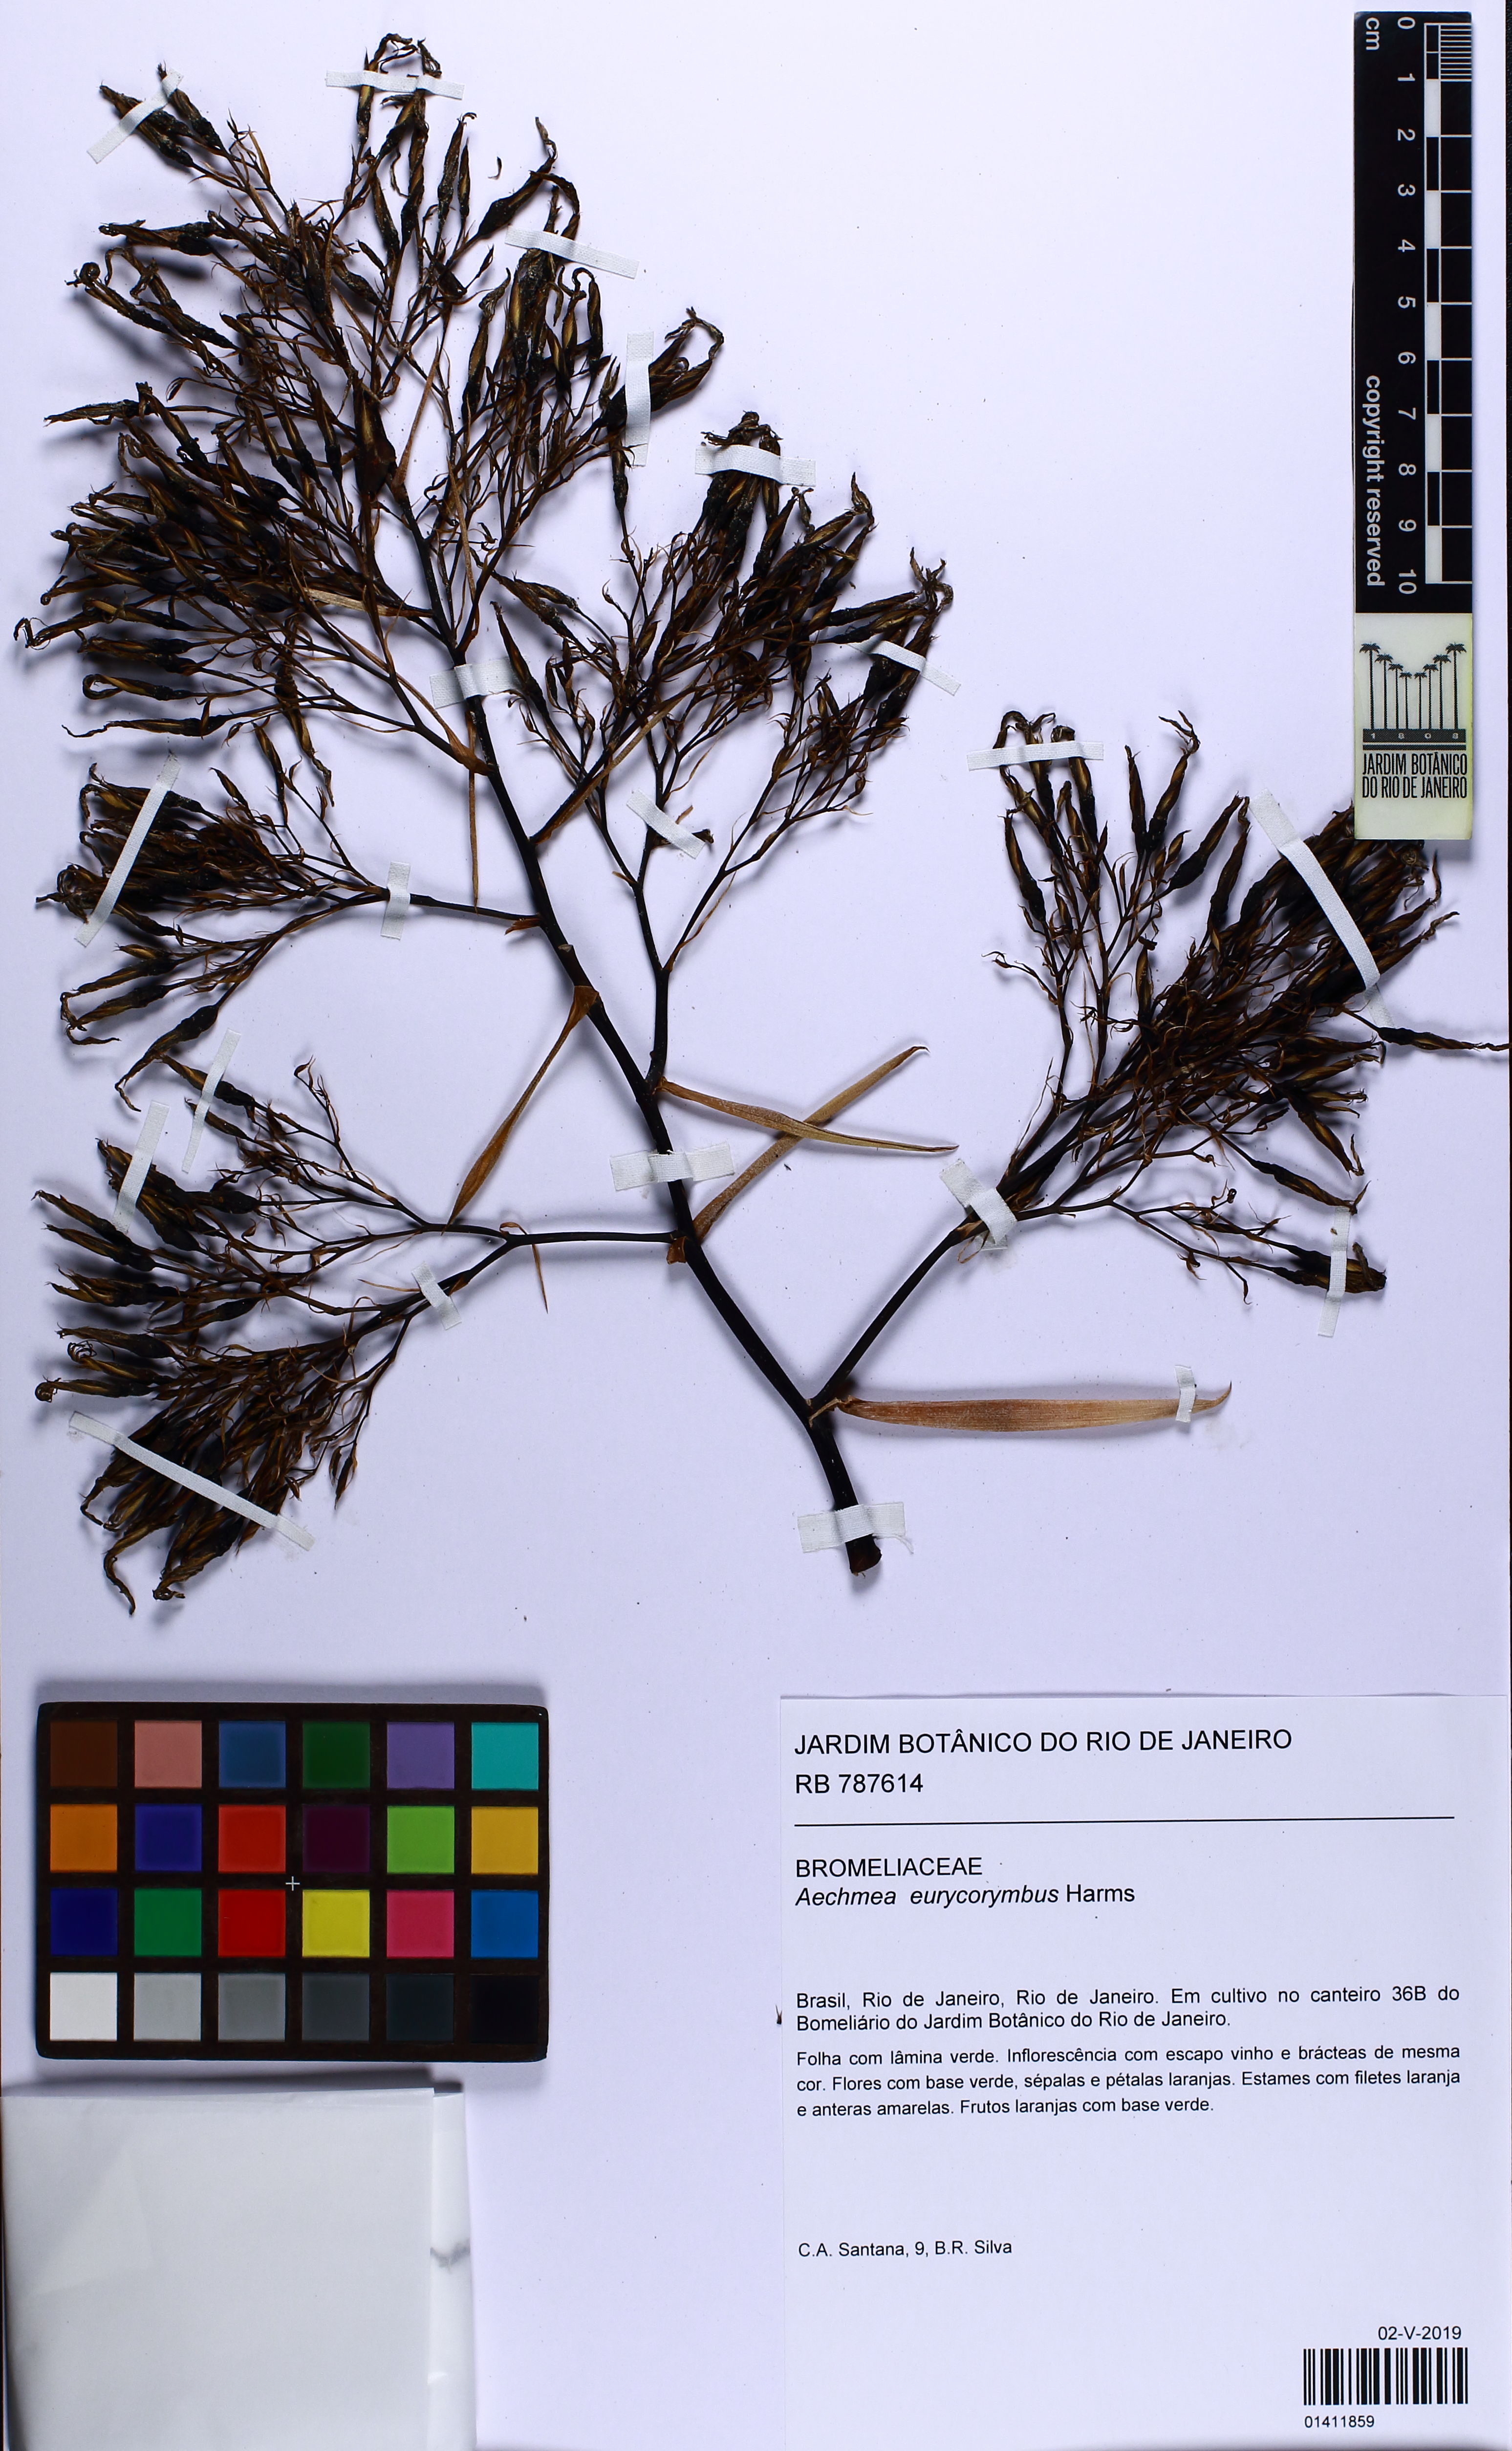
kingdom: Plantae
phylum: Tracheophyta
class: Liliopsida
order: Poales
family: Bromeliaceae
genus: Aechmea
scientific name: Aechmea eurycorymbus
